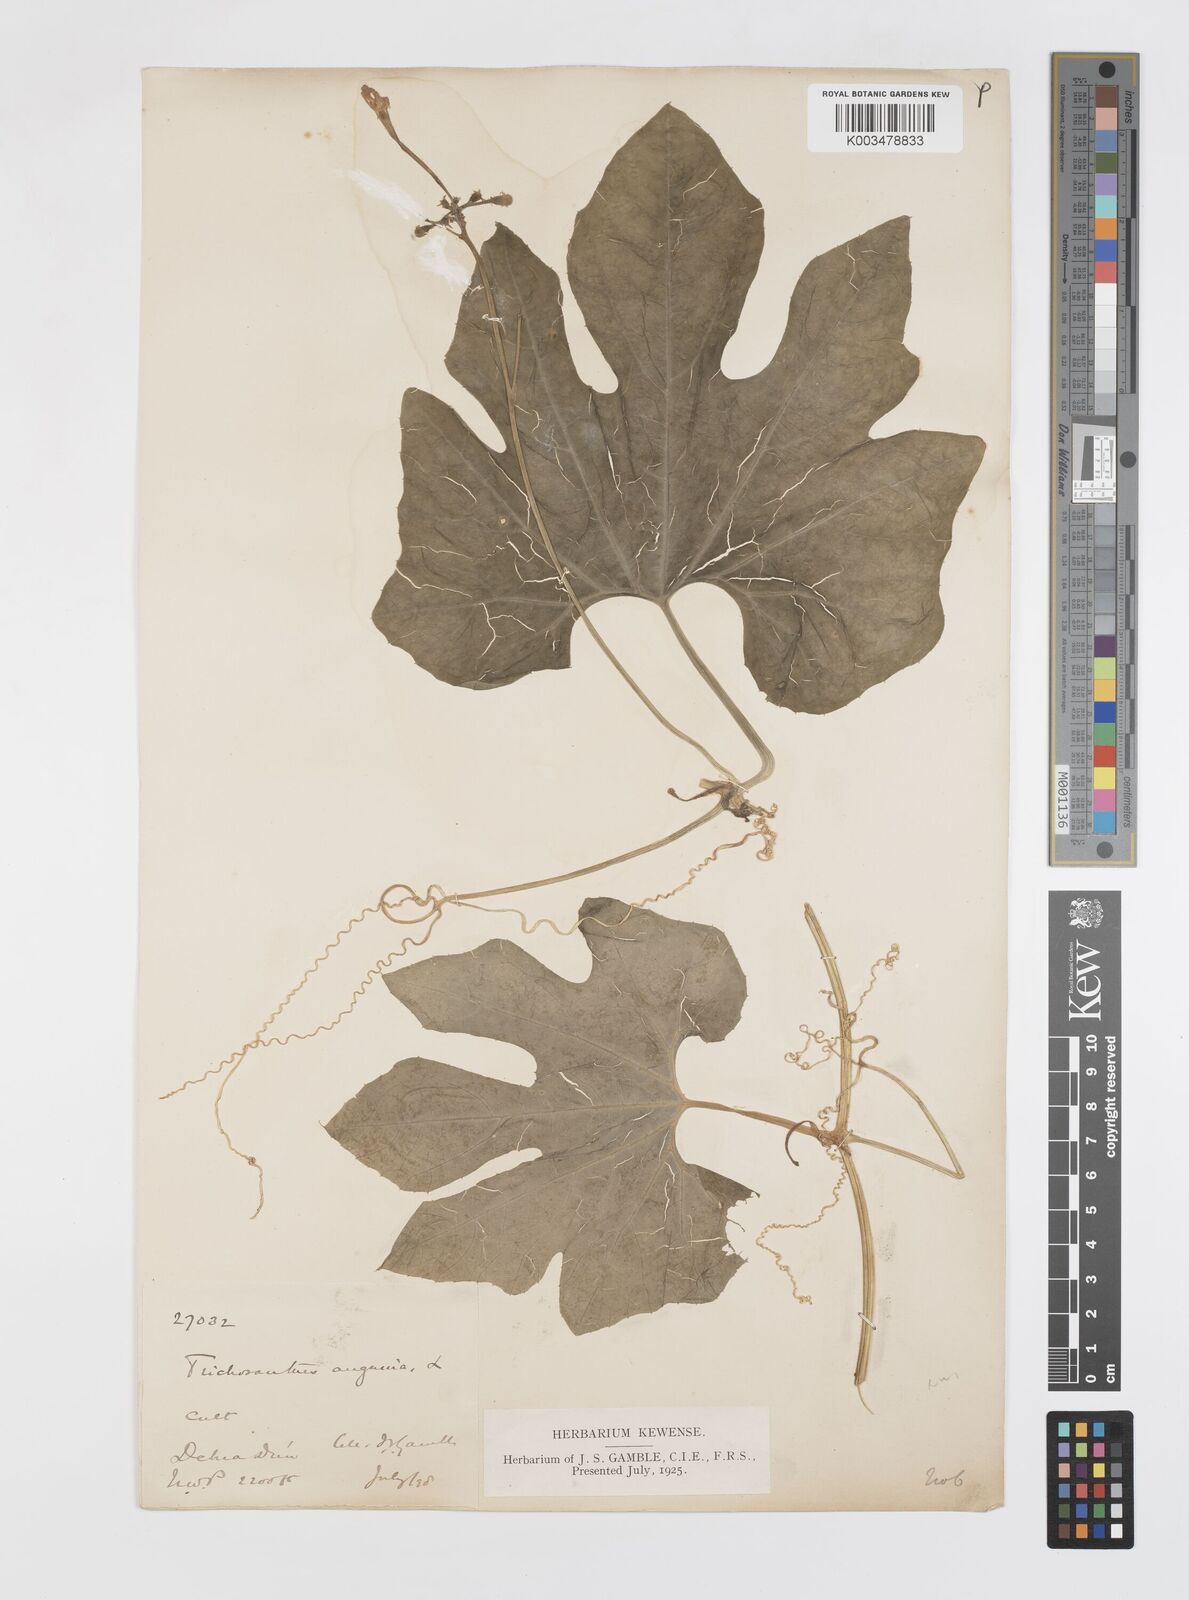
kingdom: Plantae
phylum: Tracheophyta
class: Magnoliopsida
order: Cucurbitales
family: Cucurbitaceae
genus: Trichosanthes
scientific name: Trichosanthes cucumerina
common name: Snakegourd
